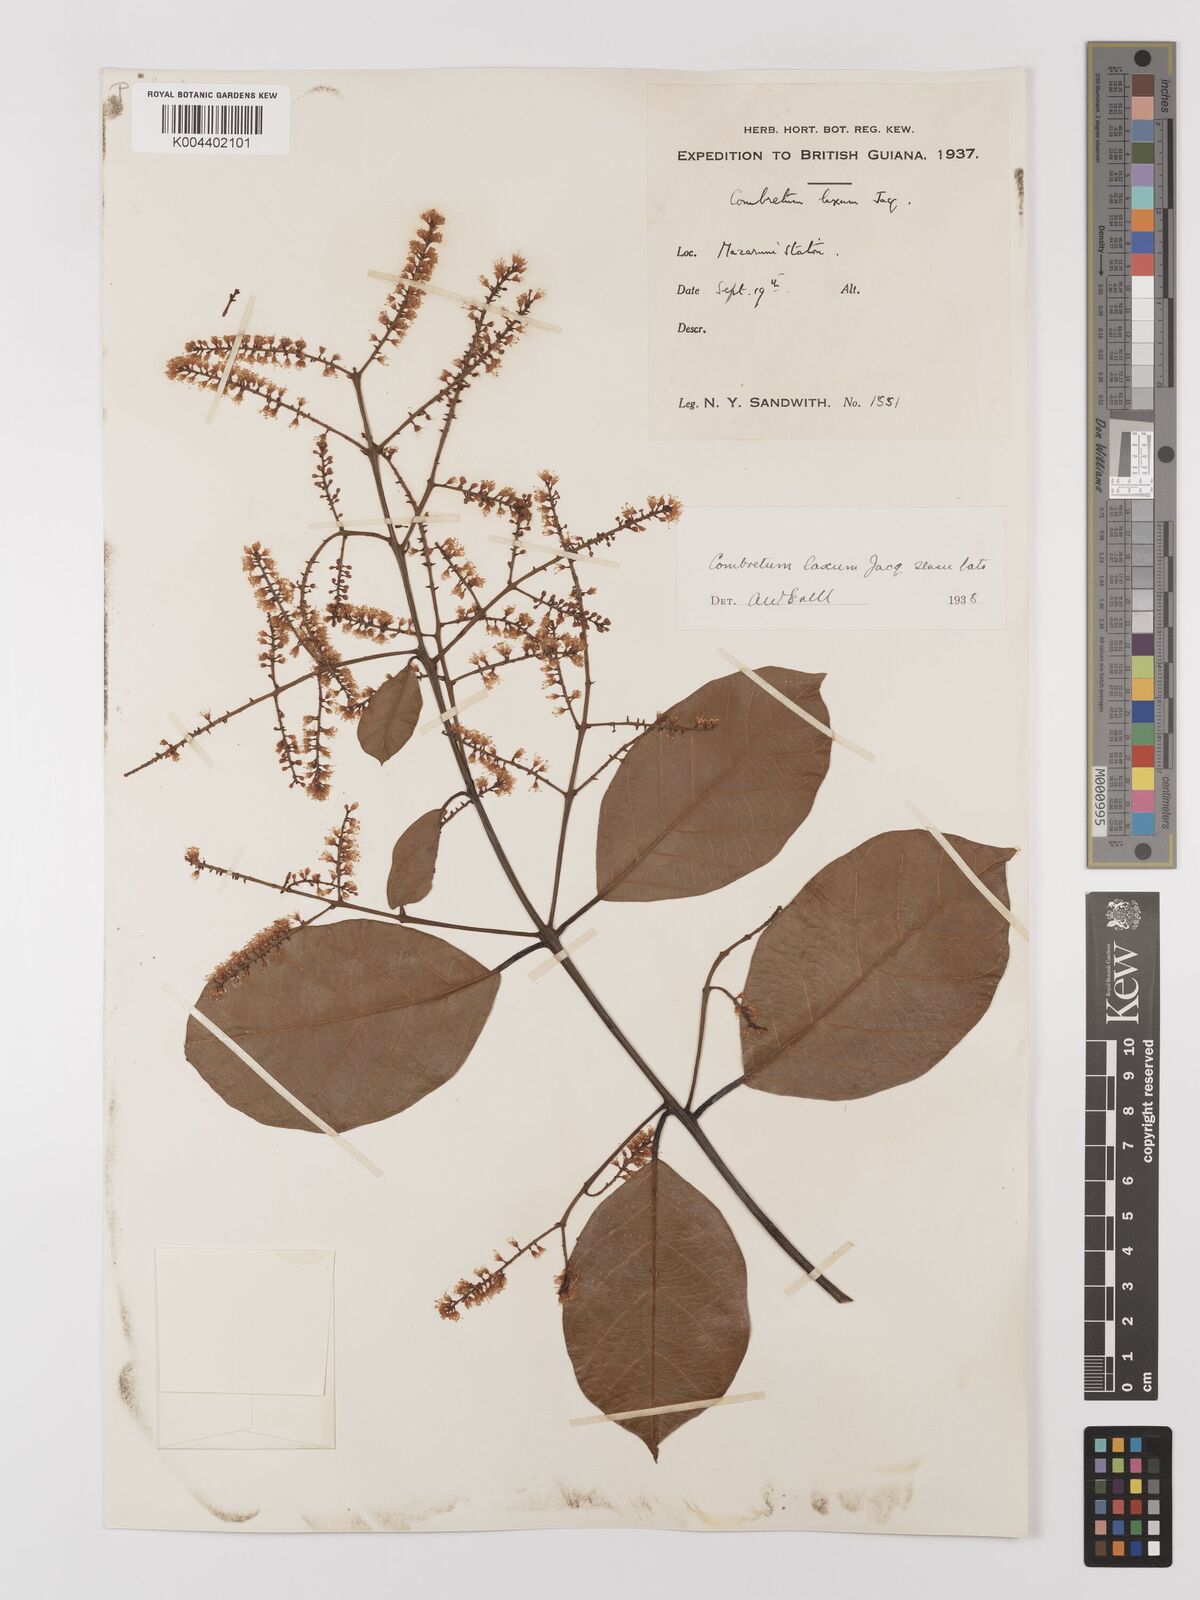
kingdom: Plantae
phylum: Tracheophyta
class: Magnoliopsida
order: Myrtales
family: Combretaceae
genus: Combretum
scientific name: Combretum
